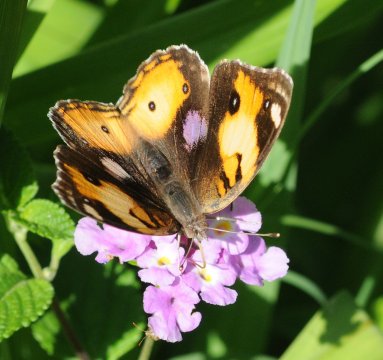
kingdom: Animalia
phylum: Arthropoda
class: Insecta
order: Lepidoptera
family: Nymphalidae
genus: Junonia
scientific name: Junonia hierta
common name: Yellow Pansy
